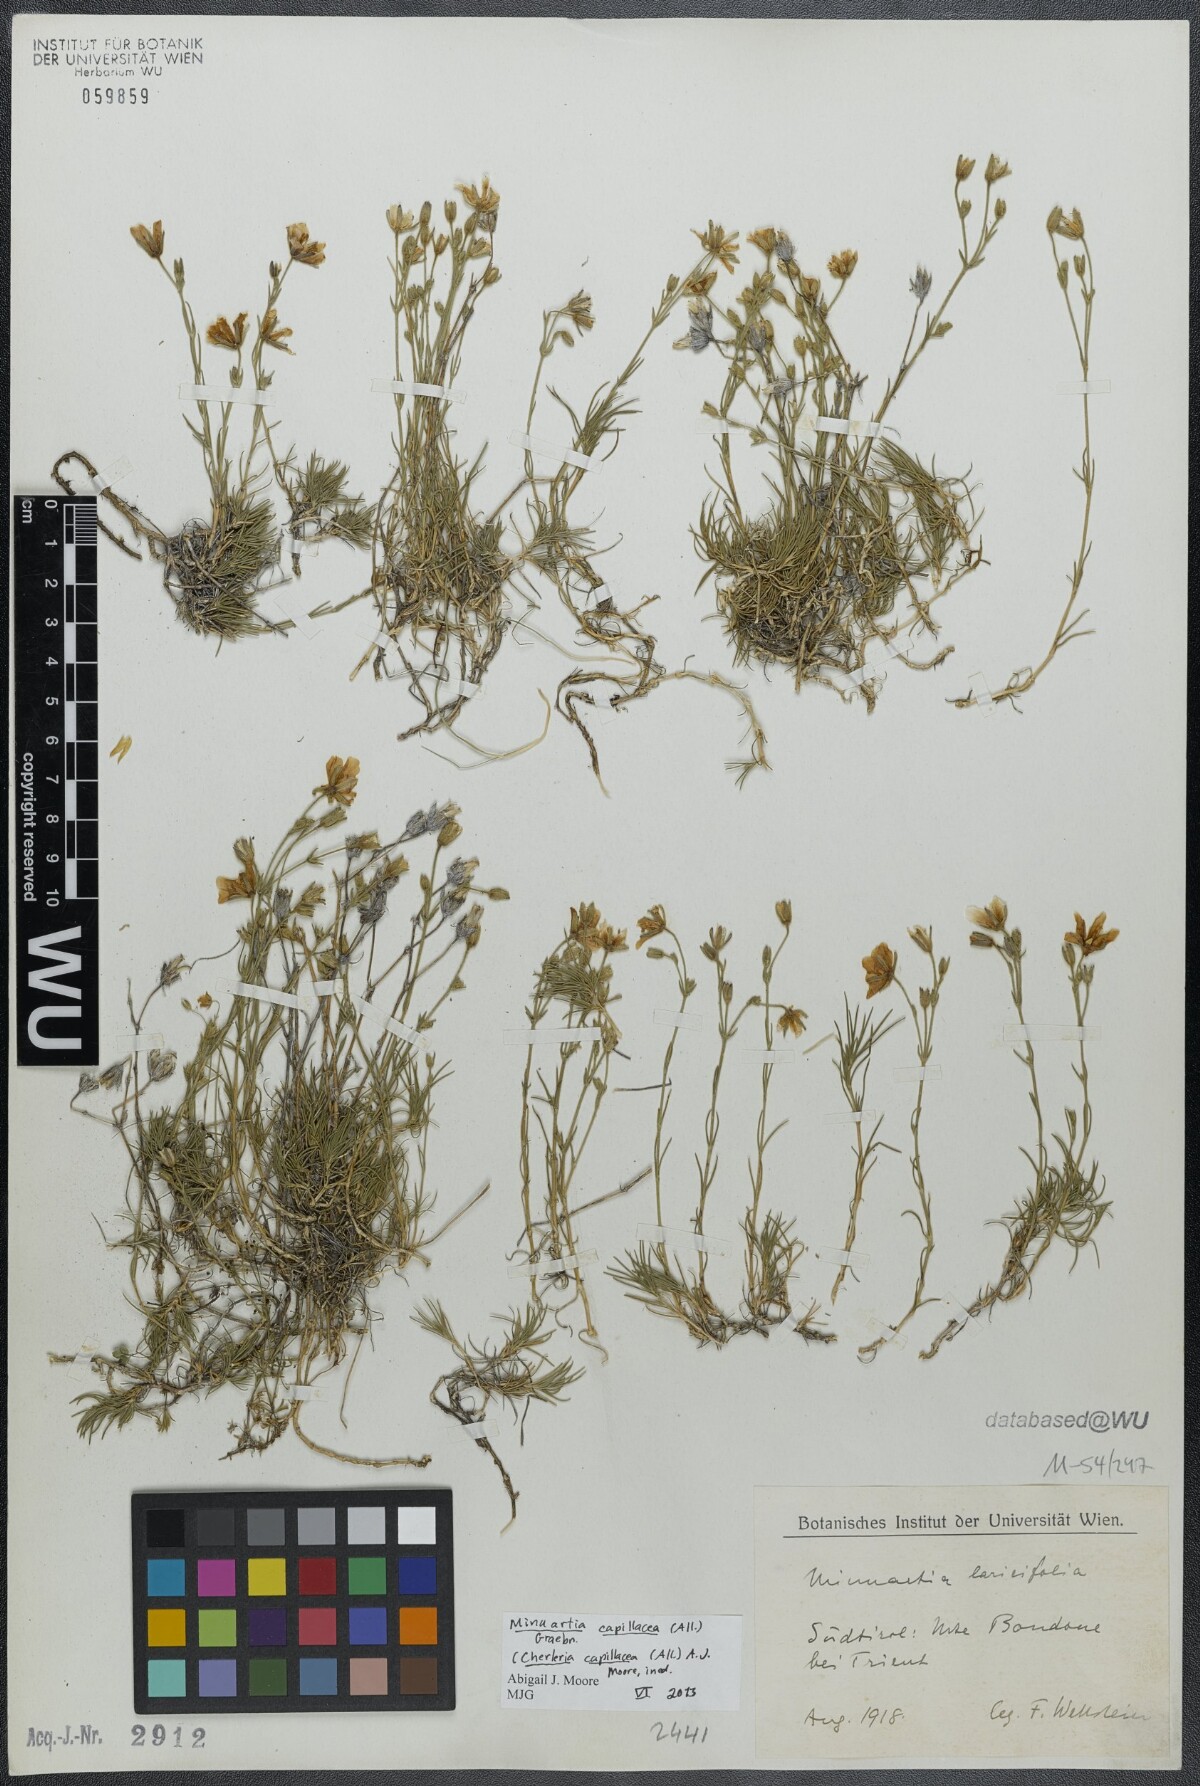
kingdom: Plantae
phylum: Tracheophyta
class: Magnoliopsida
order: Caryophyllales
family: Caryophyllaceae
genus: Cherleria
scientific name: Cherleria capillacea
